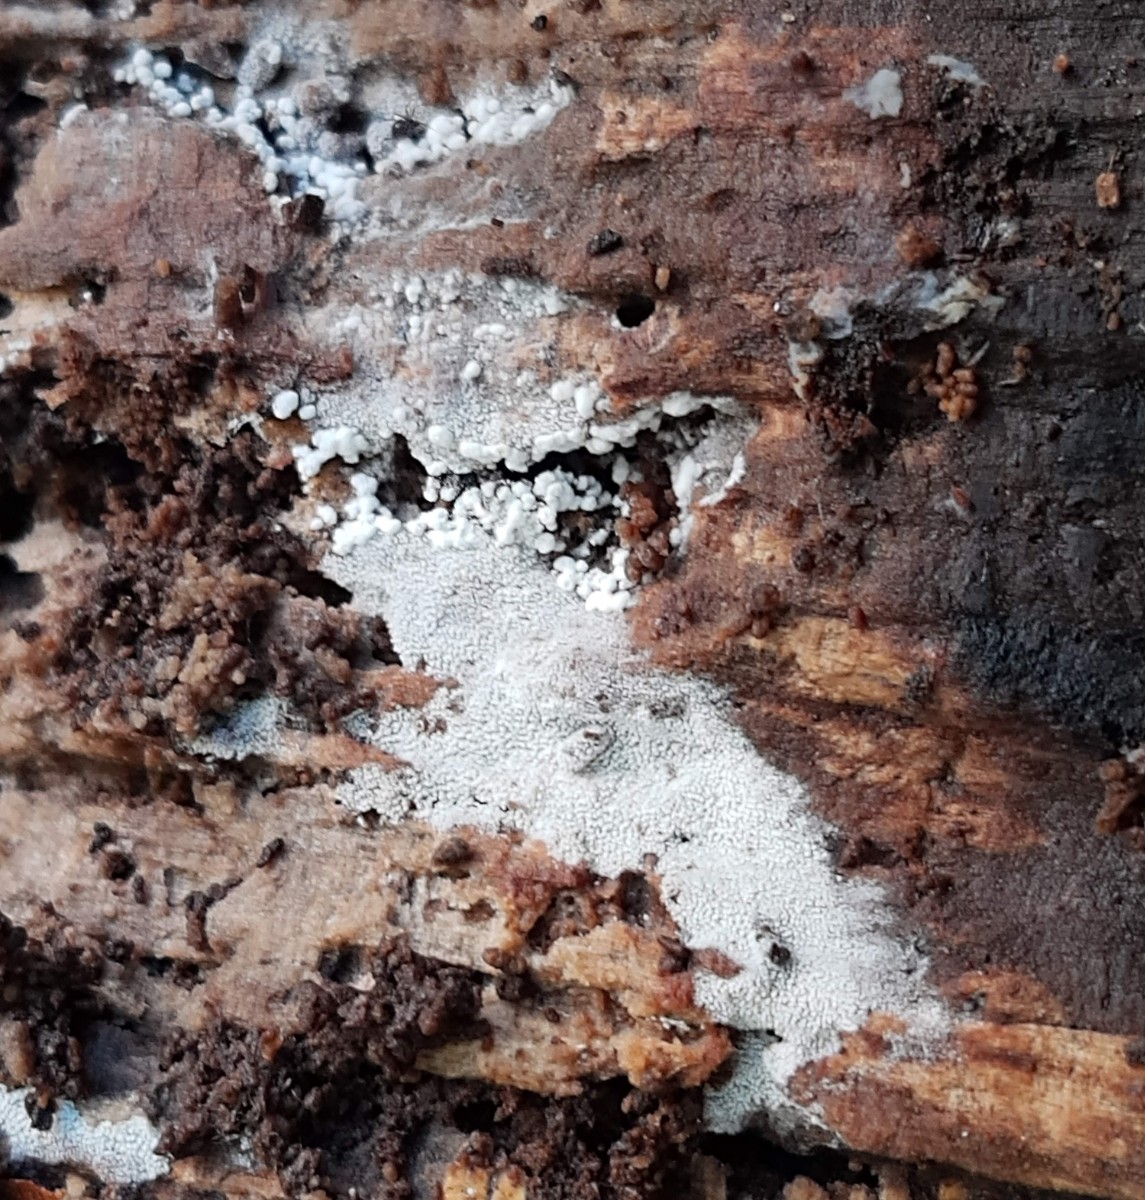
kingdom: Fungi
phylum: Basidiomycota
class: Agaricomycetes
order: Trechisporales
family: Sistotremataceae
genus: Trechispora
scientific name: Trechispora stevensonii
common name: støvende vathinde
